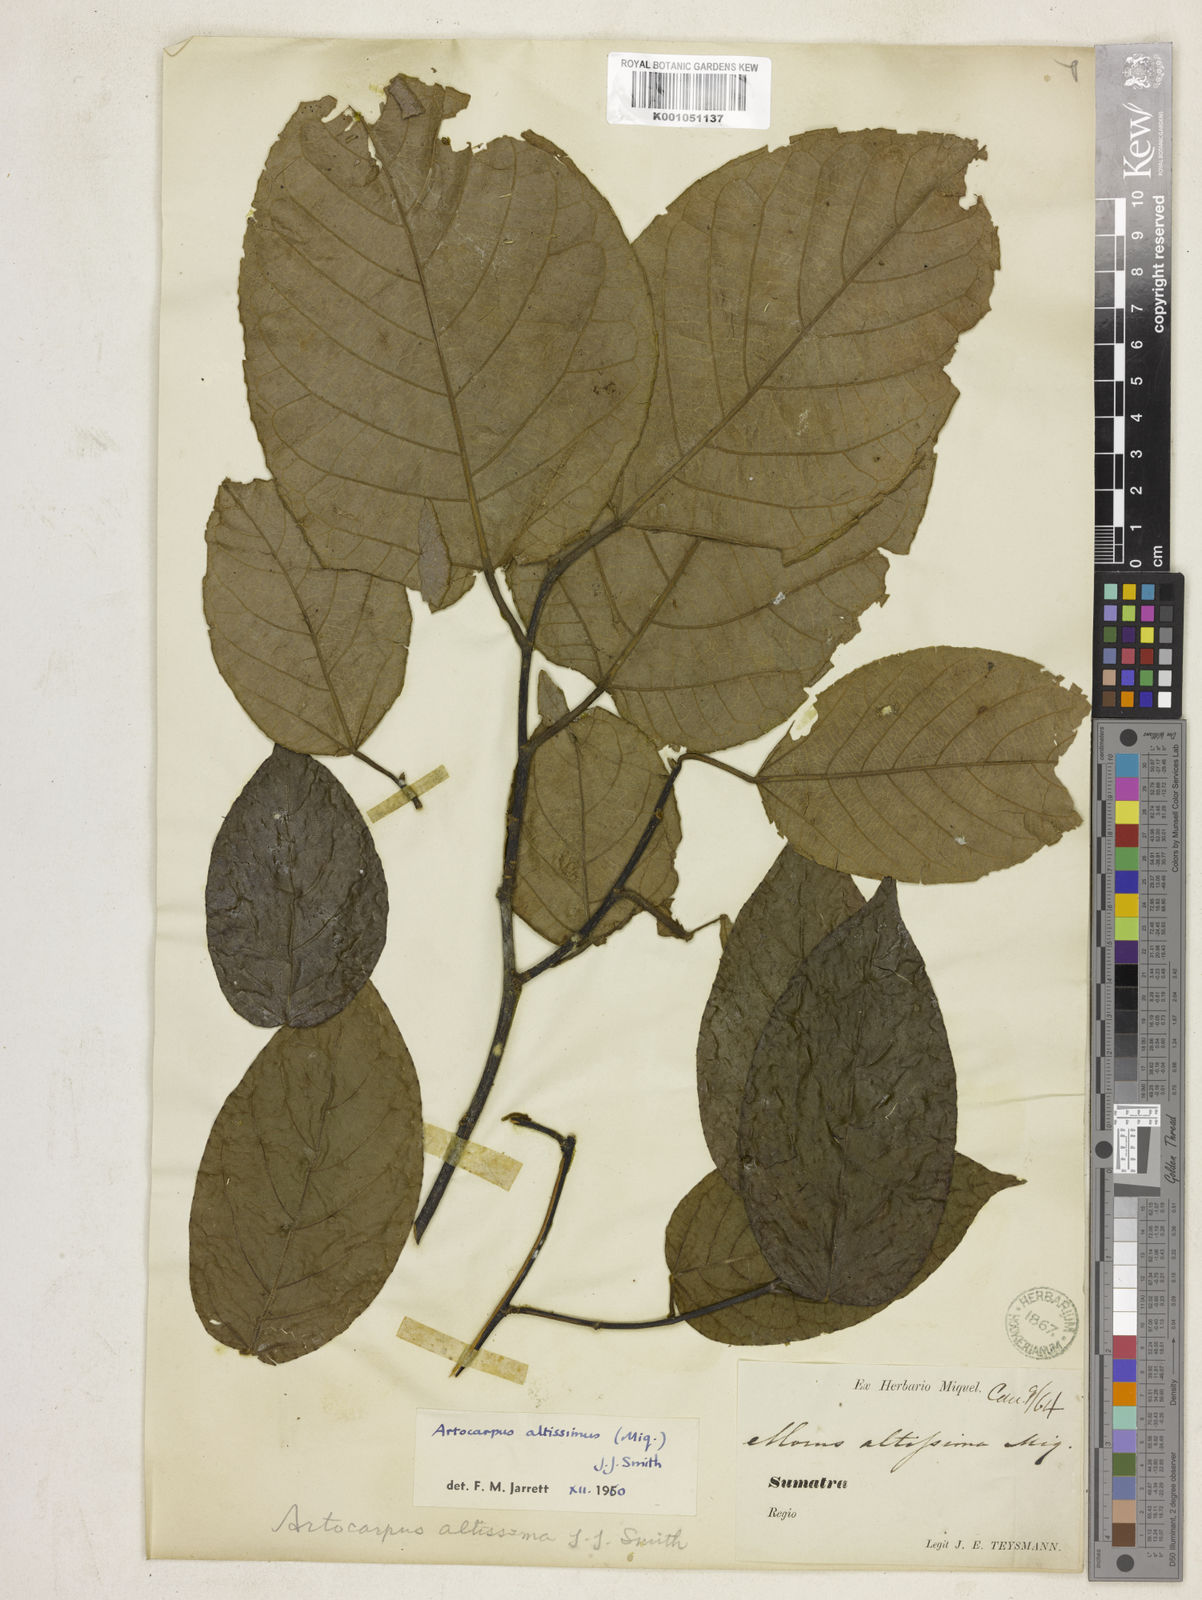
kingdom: Plantae
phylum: Tracheophyta
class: Magnoliopsida
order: Rosales
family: Moraceae
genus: Artocarpus
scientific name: Artocarpus altissimus
